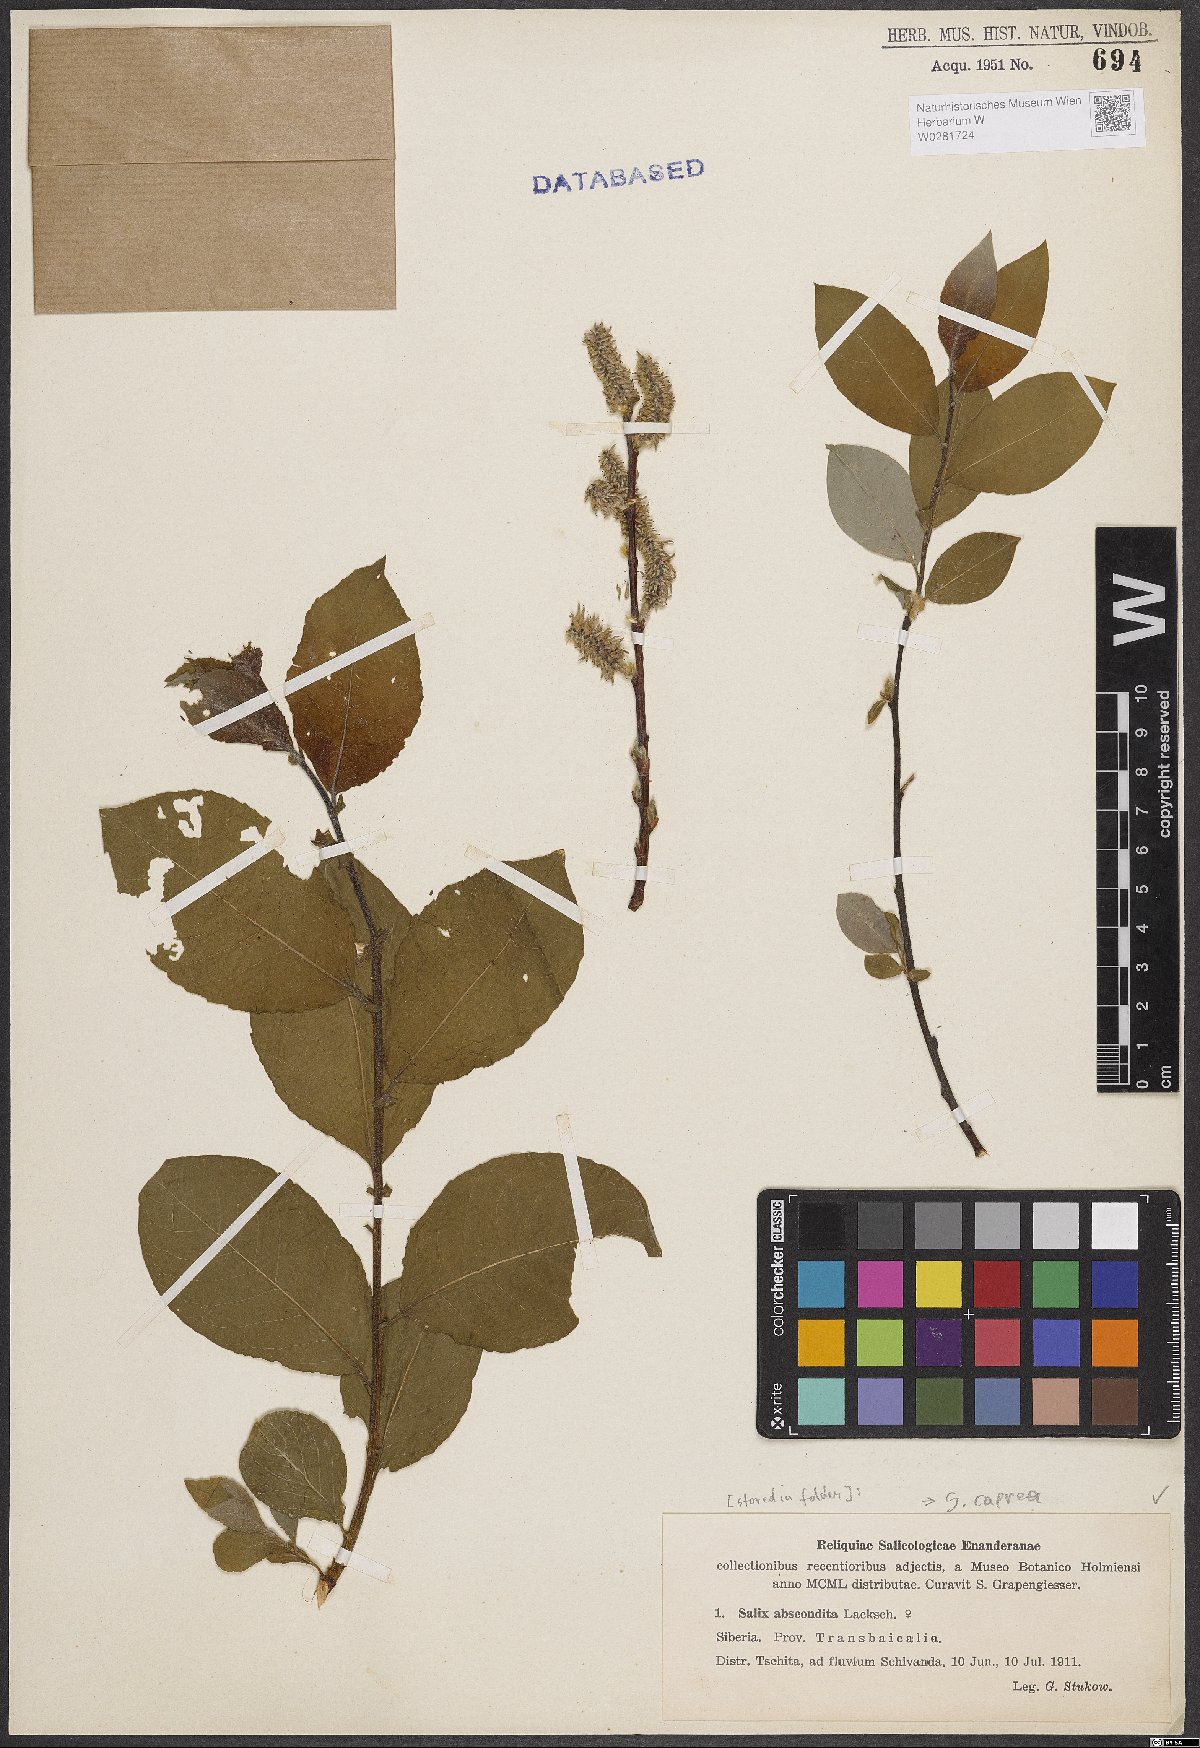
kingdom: Plantae
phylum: Tracheophyta
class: Magnoliopsida
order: Malpighiales
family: Salicaceae
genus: Salix
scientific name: Salix caprea
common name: Goat willow
